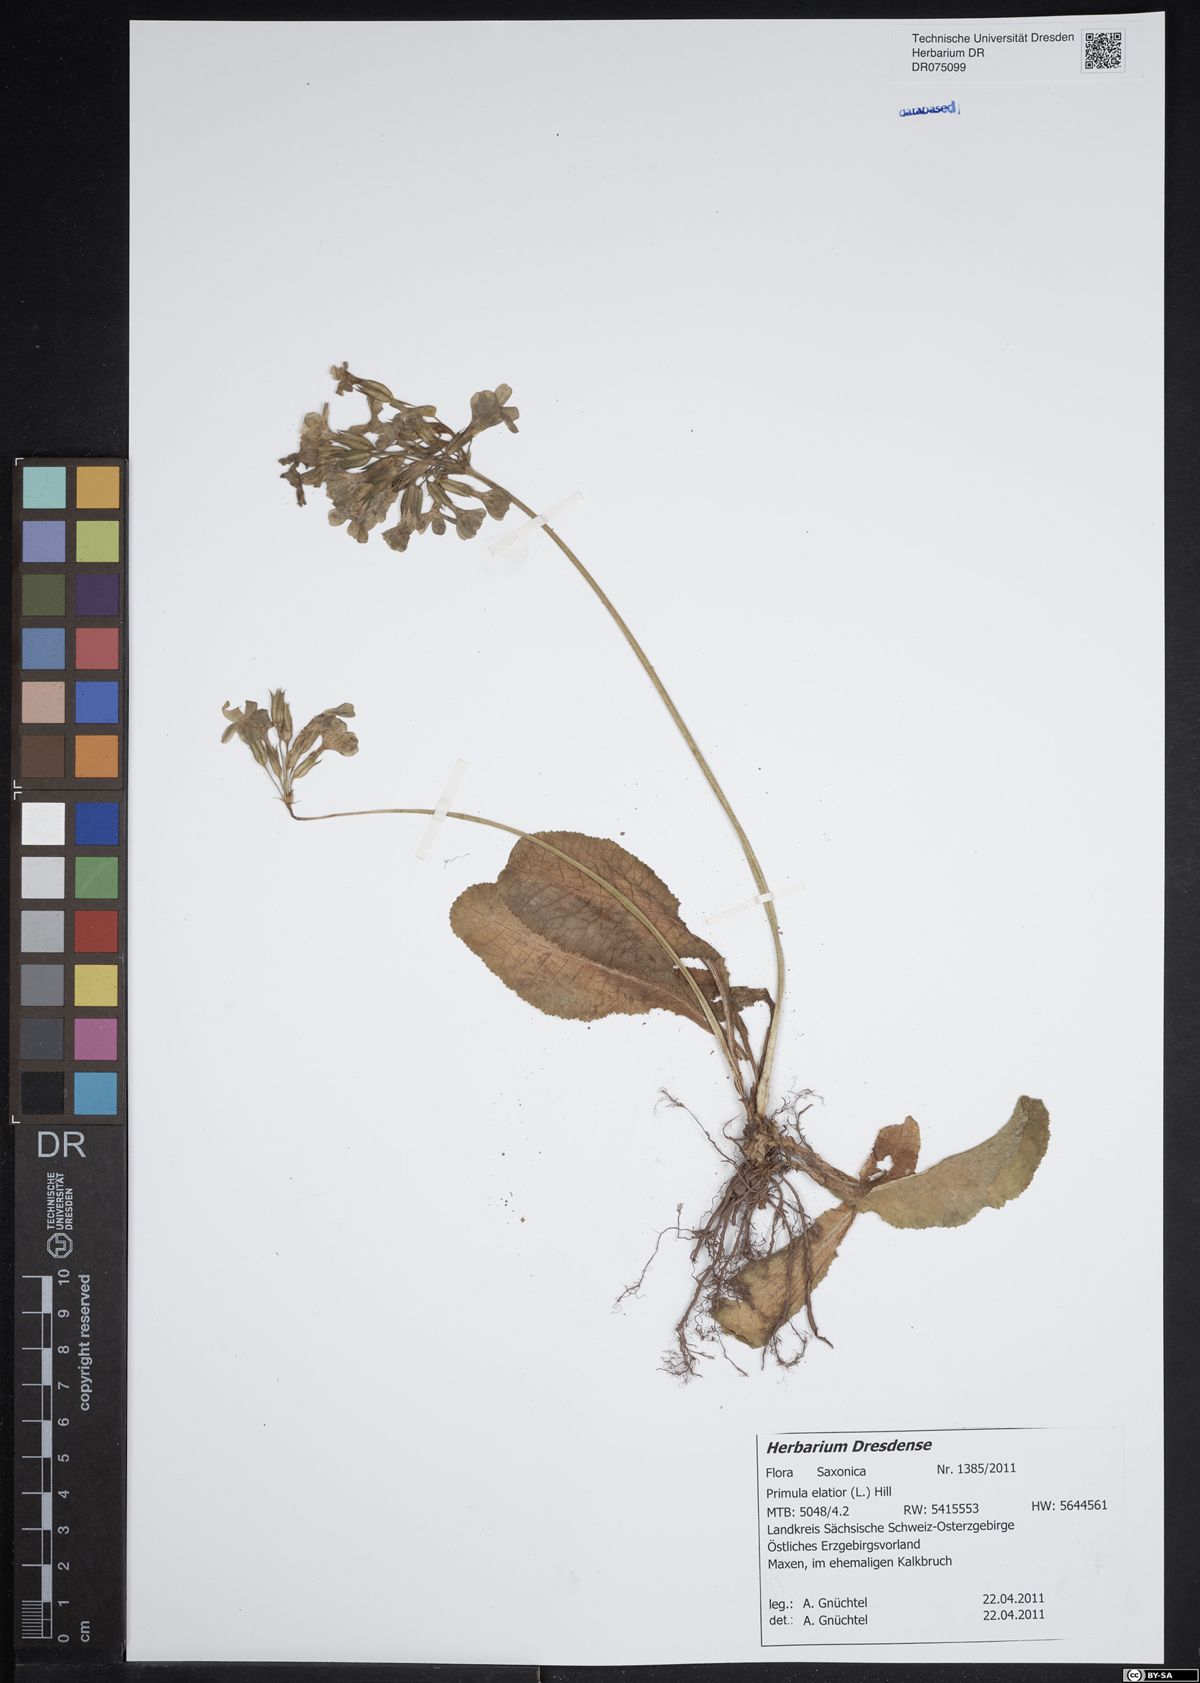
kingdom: Plantae
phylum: Tracheophyta
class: Magnoliopsida
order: Ericales
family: Primulaceae
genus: Primula
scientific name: Primula elatior
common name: Oxlip
